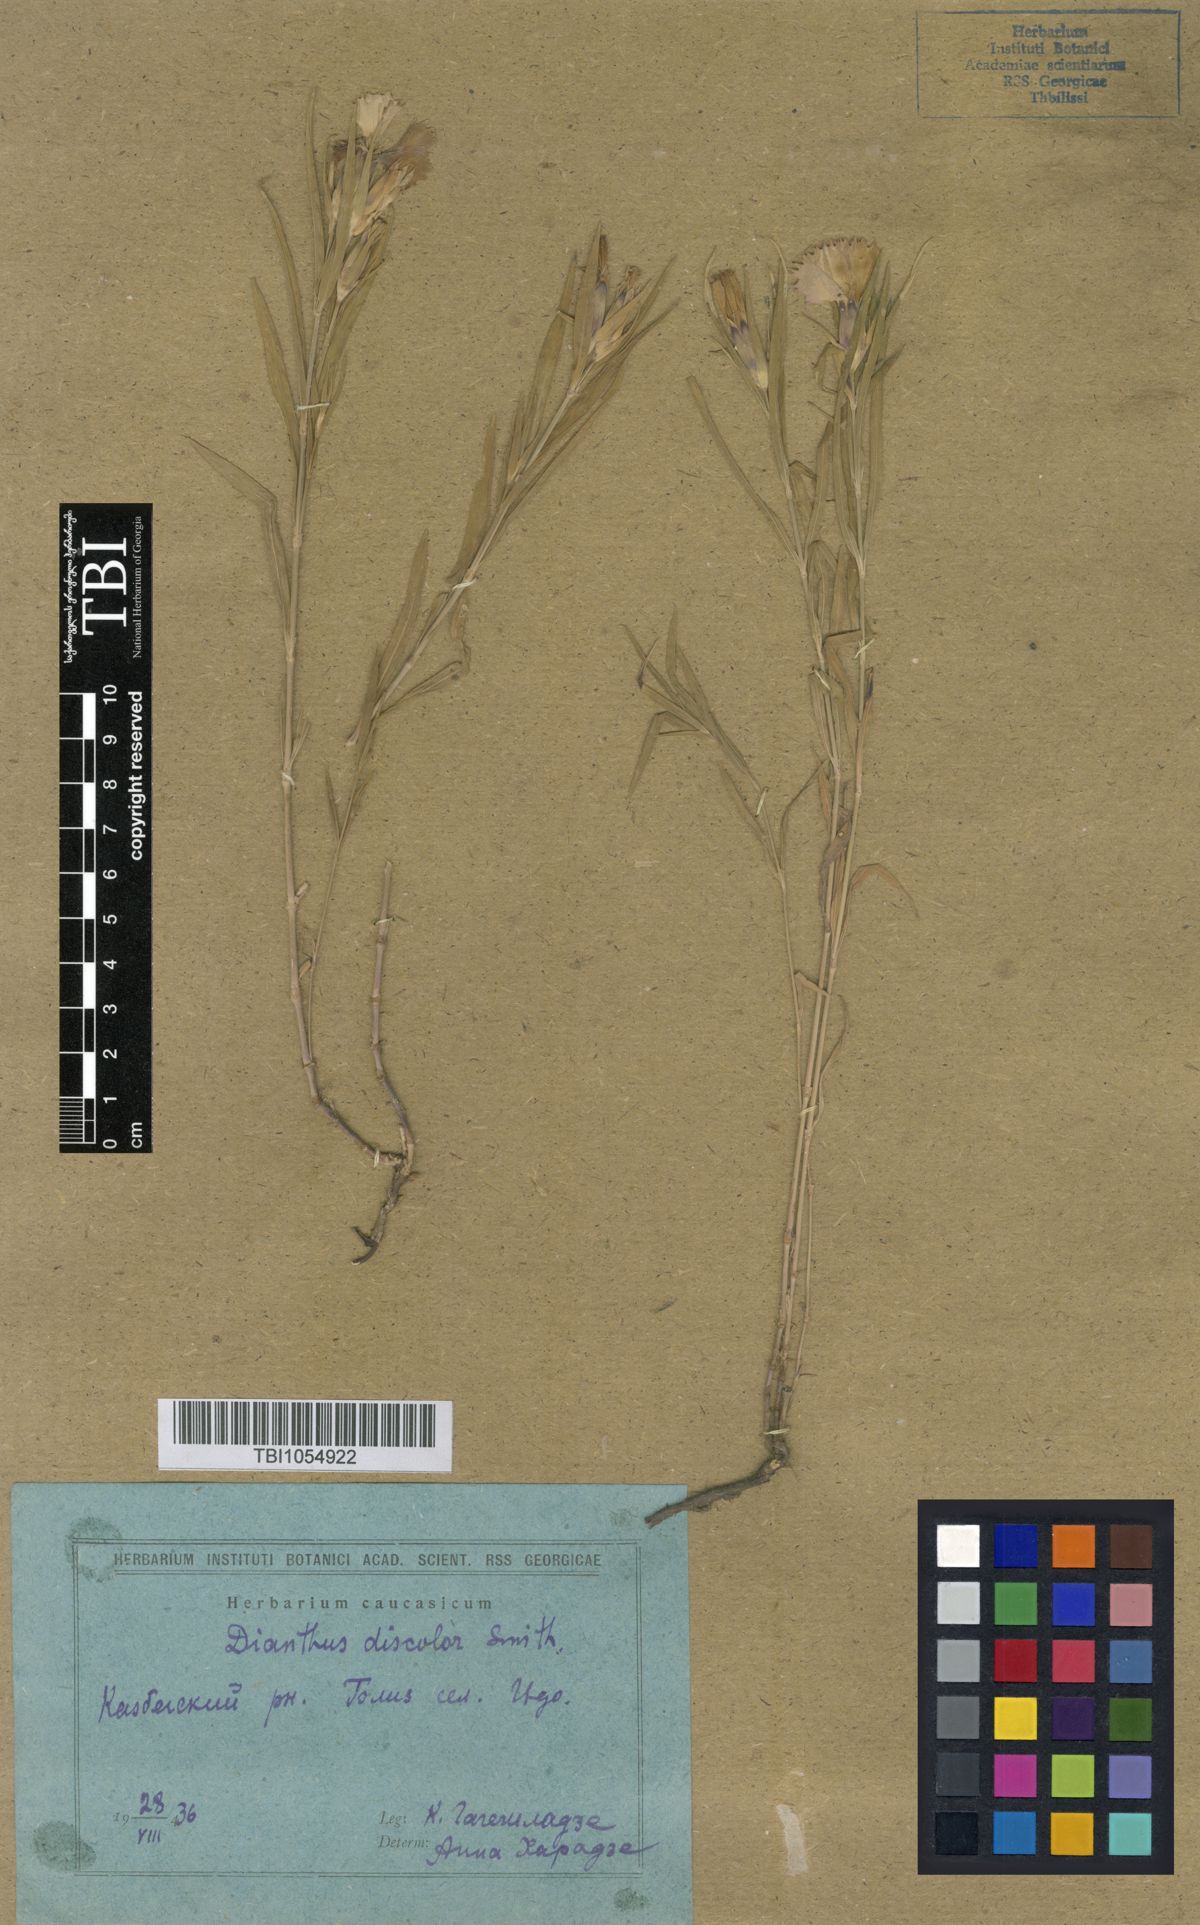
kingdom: Plantae
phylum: Tracheophyta
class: Magnoliopsida
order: Caryophyllales
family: Caryophyllaceae
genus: Dianthus
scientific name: Dianthus caucaseus
